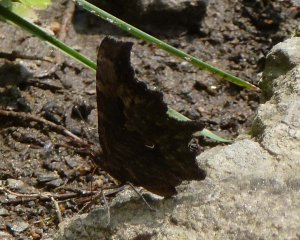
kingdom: Animalia
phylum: Arthropoda
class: Insecta
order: Lepidoptera
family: Nymphalidae
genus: Polygonia
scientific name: Polygonia progne
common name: Gray Comma
